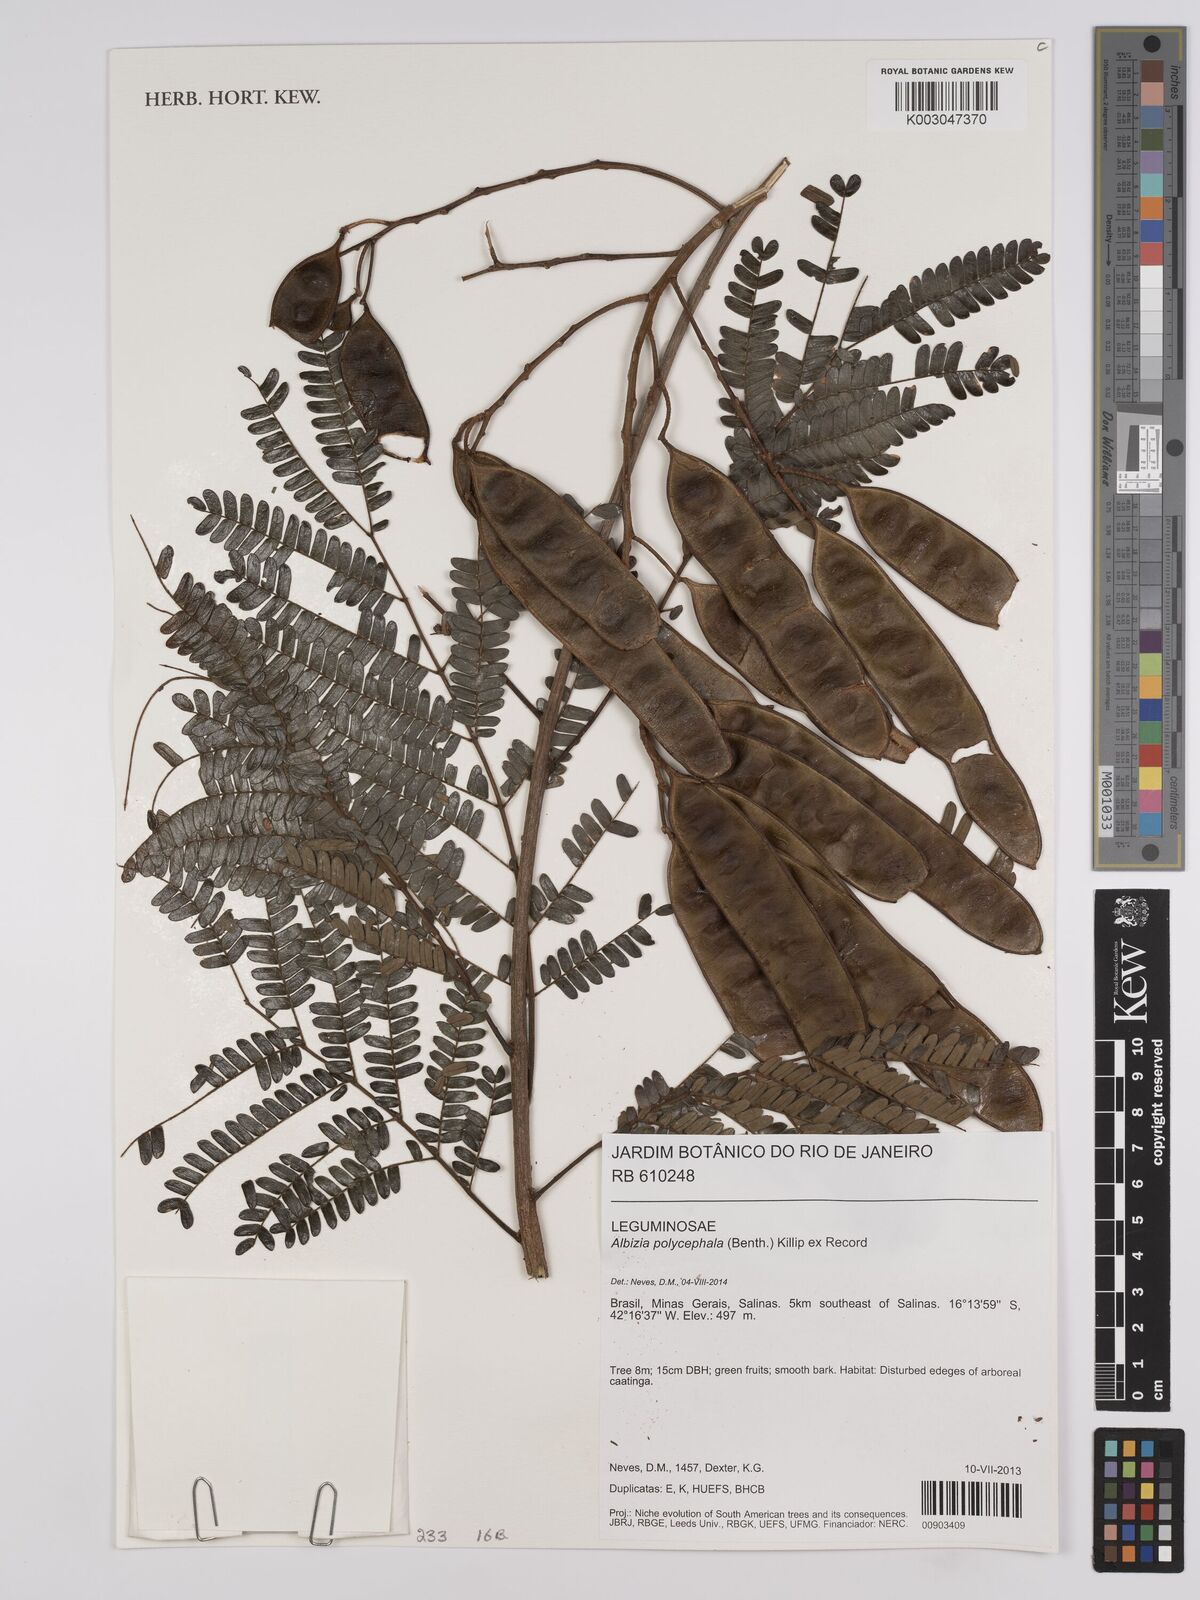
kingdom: Plantae
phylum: Tracheophyta
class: Magnoliopsida
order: Fabales
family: Fabaceae
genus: Albizia
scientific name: Albizia polycephala
